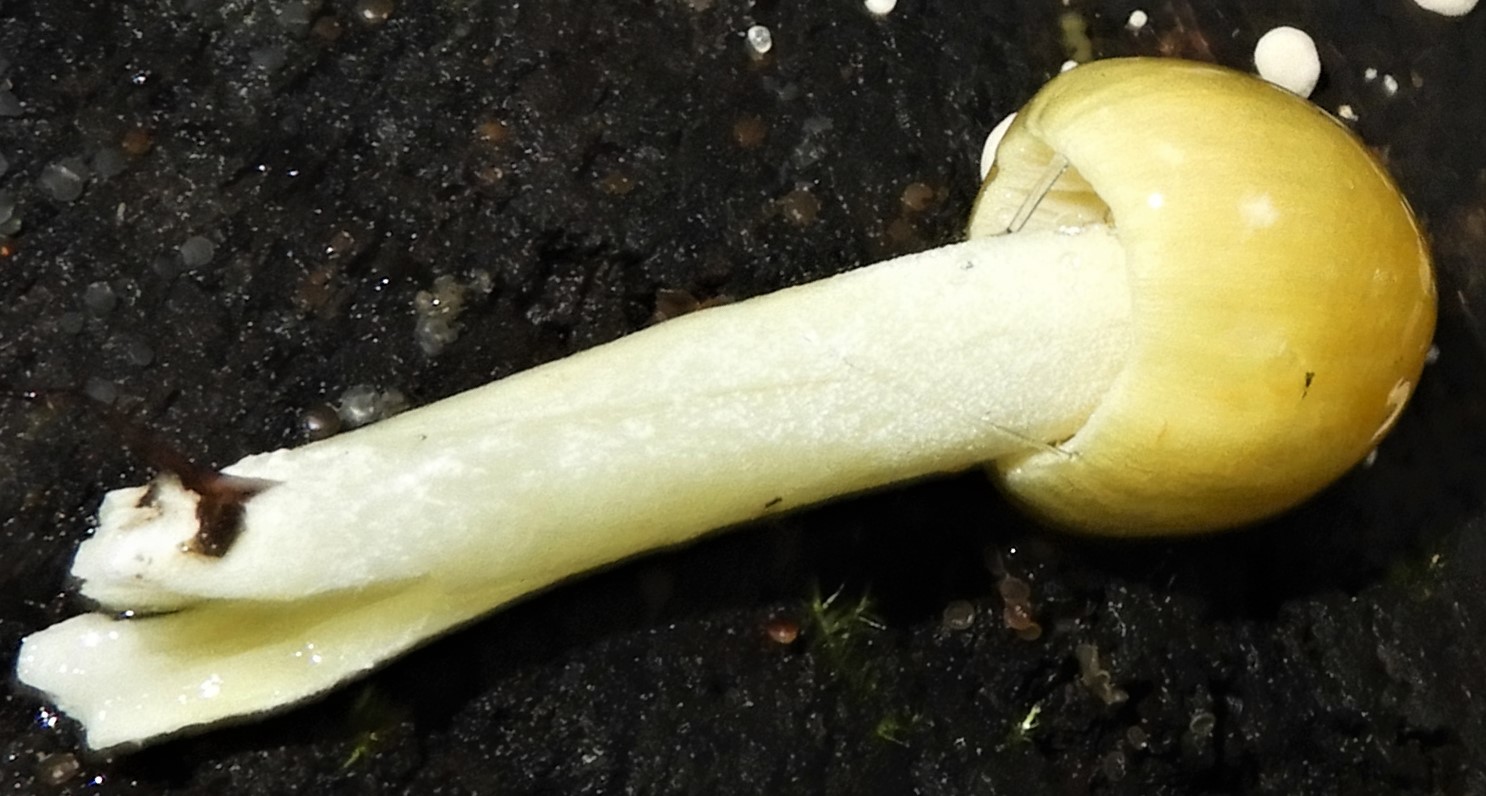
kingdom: Fungi
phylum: Basidiomycota
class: Agaricomycetes
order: Agaricales
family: Bolbitiaceae
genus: Bolbitius
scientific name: Bolbitius titubans
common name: almindelig gulhat
